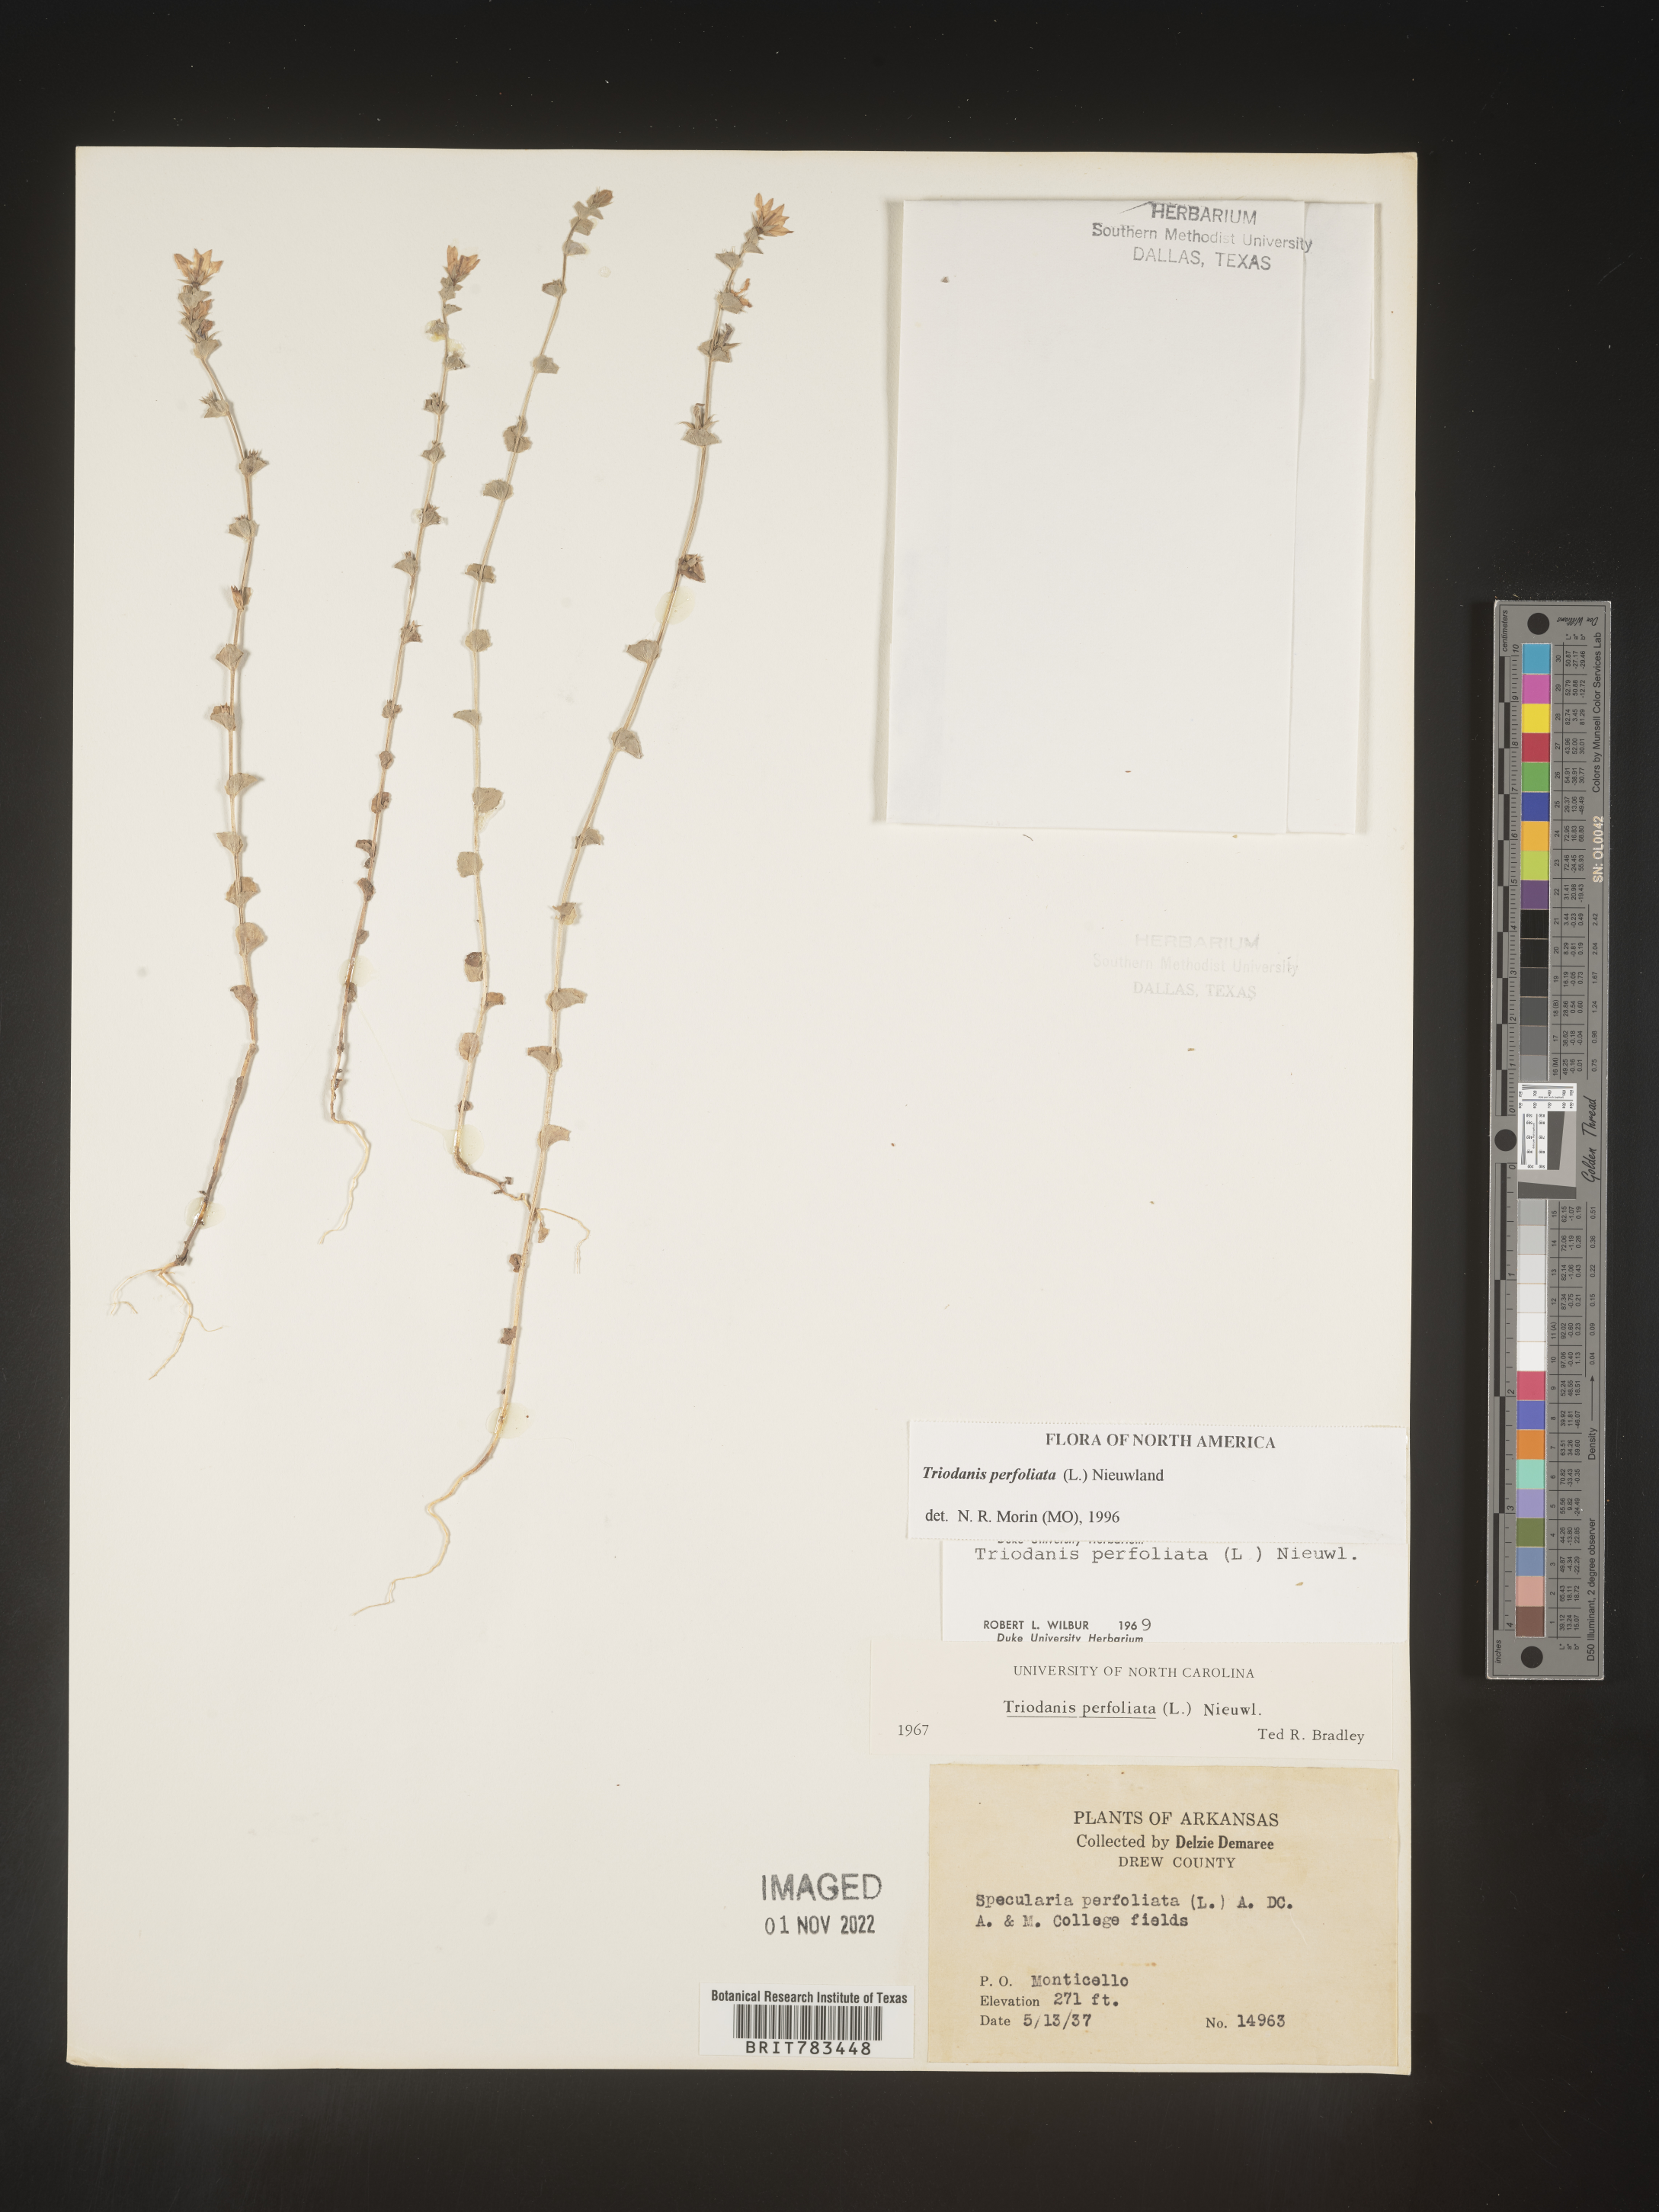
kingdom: Plantae
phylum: Tracheophyta
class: Magnoliopsida
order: Asterales
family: Campanulaceae
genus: Triodanis
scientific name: Triodanis perfoliata
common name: Clasping venus' looking-glass
